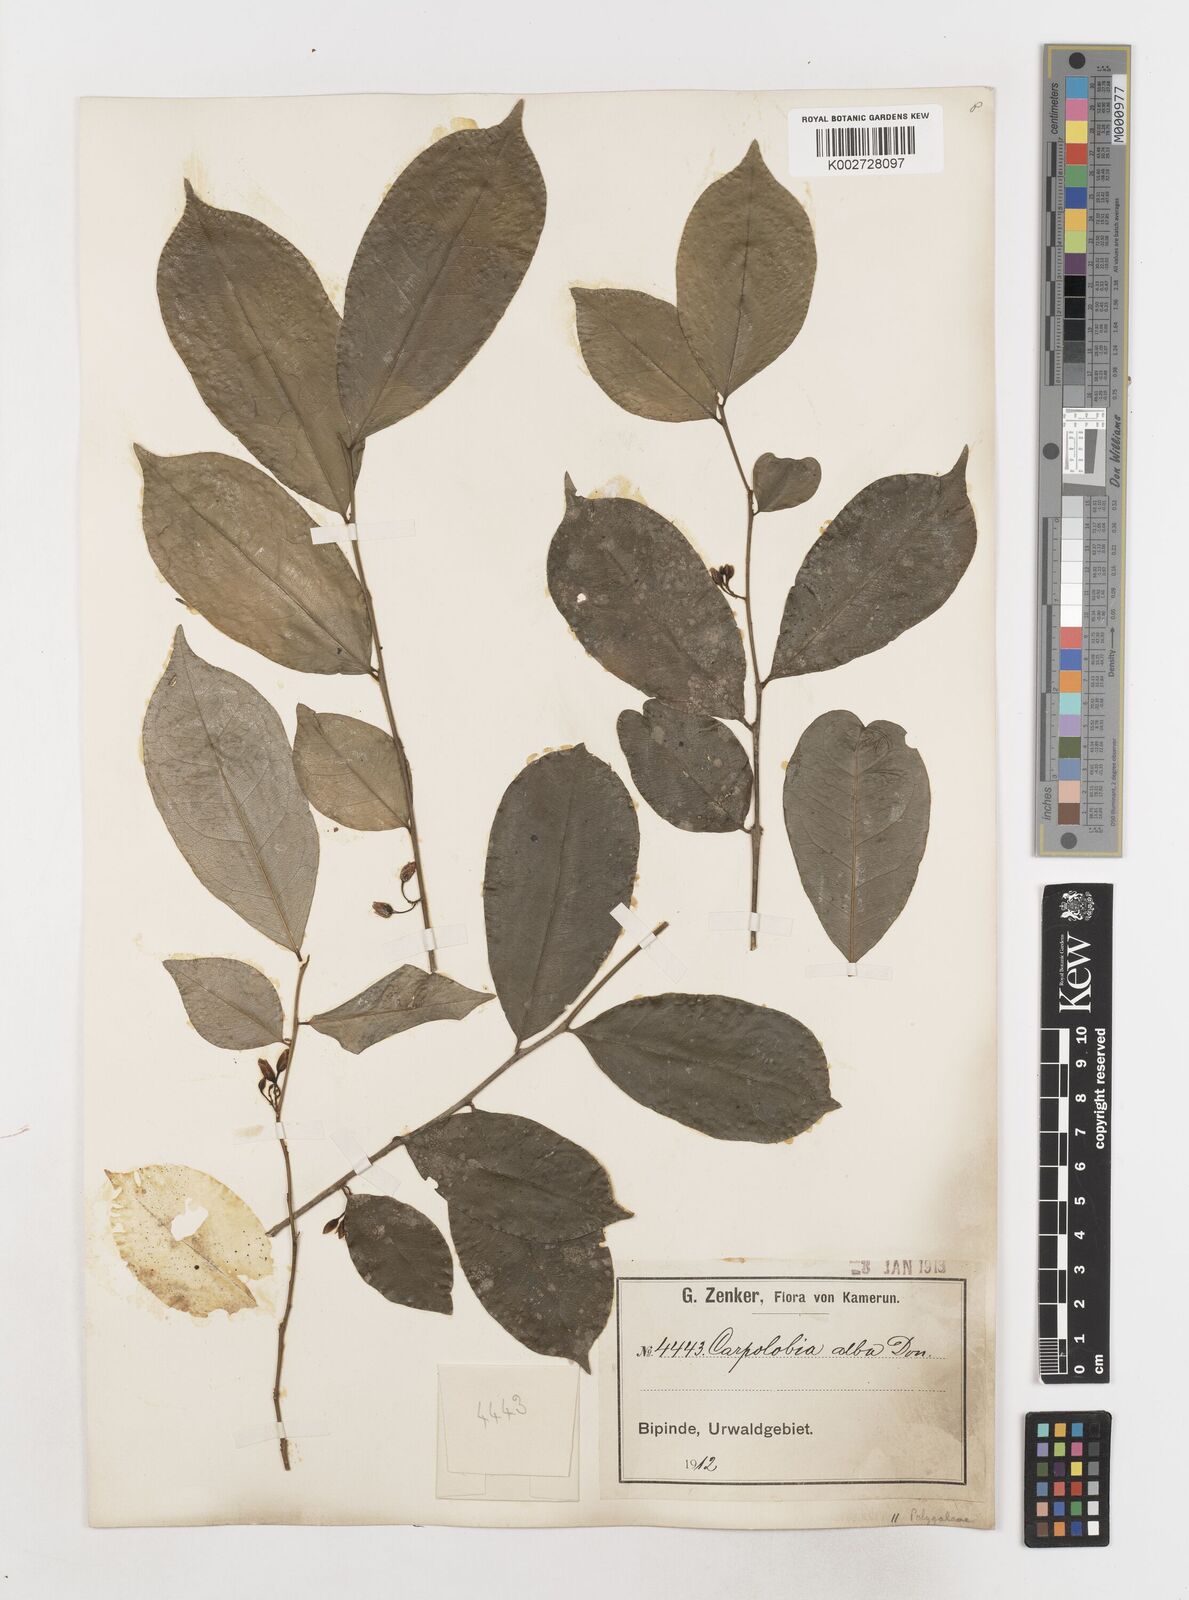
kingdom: Plantae
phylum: Tracheophyta
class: Magnoliopsida
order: Fabales
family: Polygalaceae
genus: Carpolobia
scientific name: Carpolobia alba
